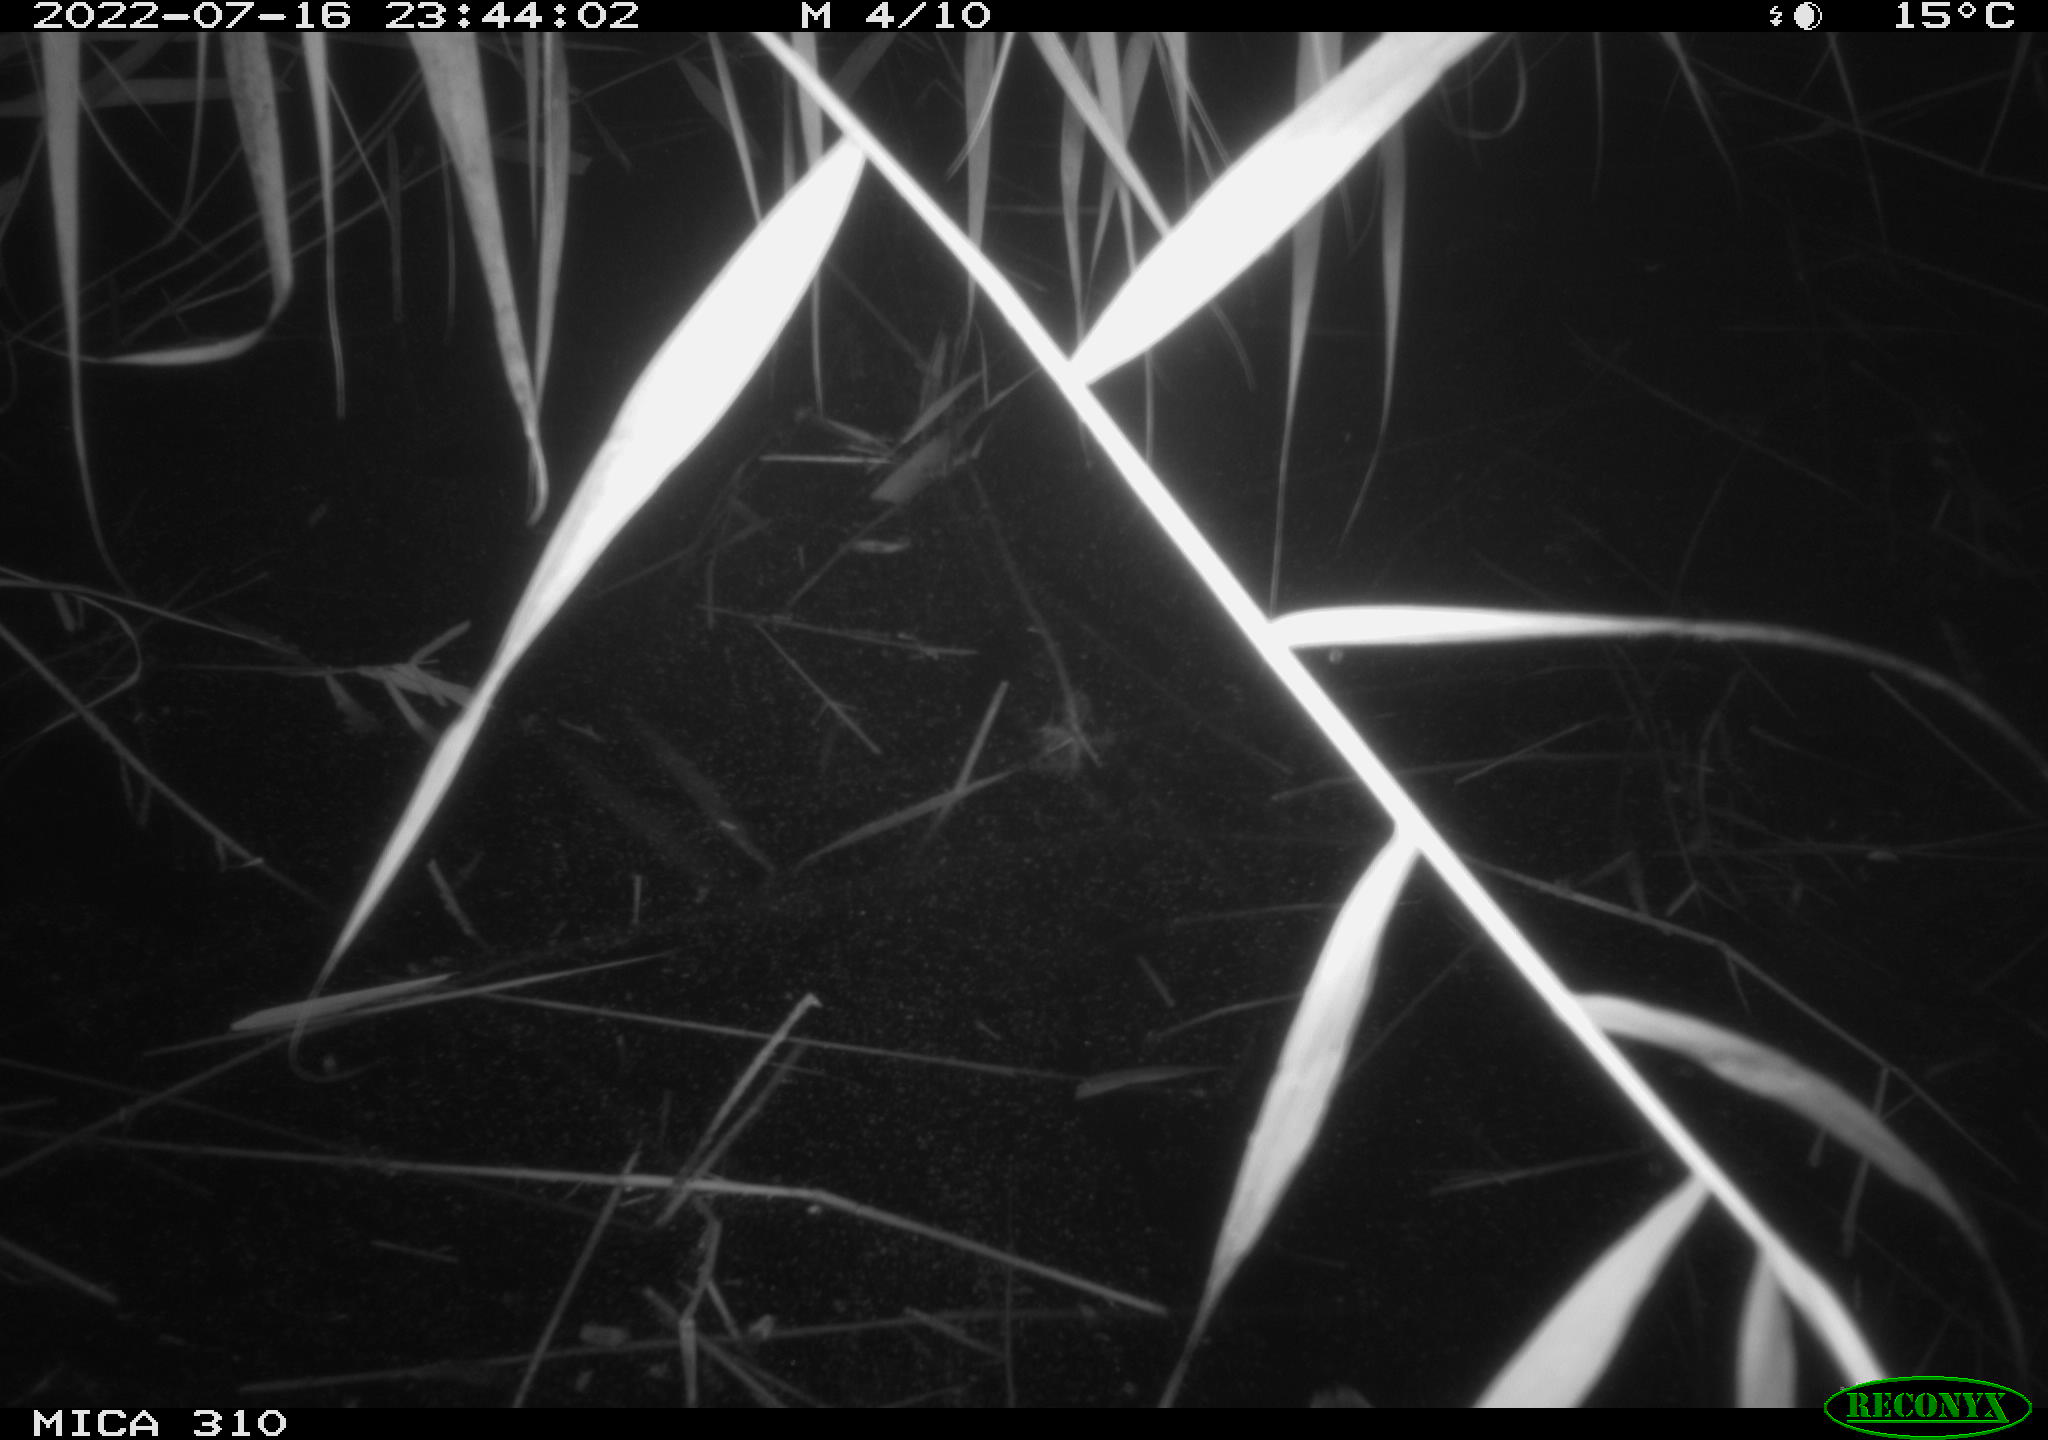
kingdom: Animalia
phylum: Chordata
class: Aves
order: Anseriformes
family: Anatidae
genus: Anas
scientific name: Anas platyrhynchos
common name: Mallard
